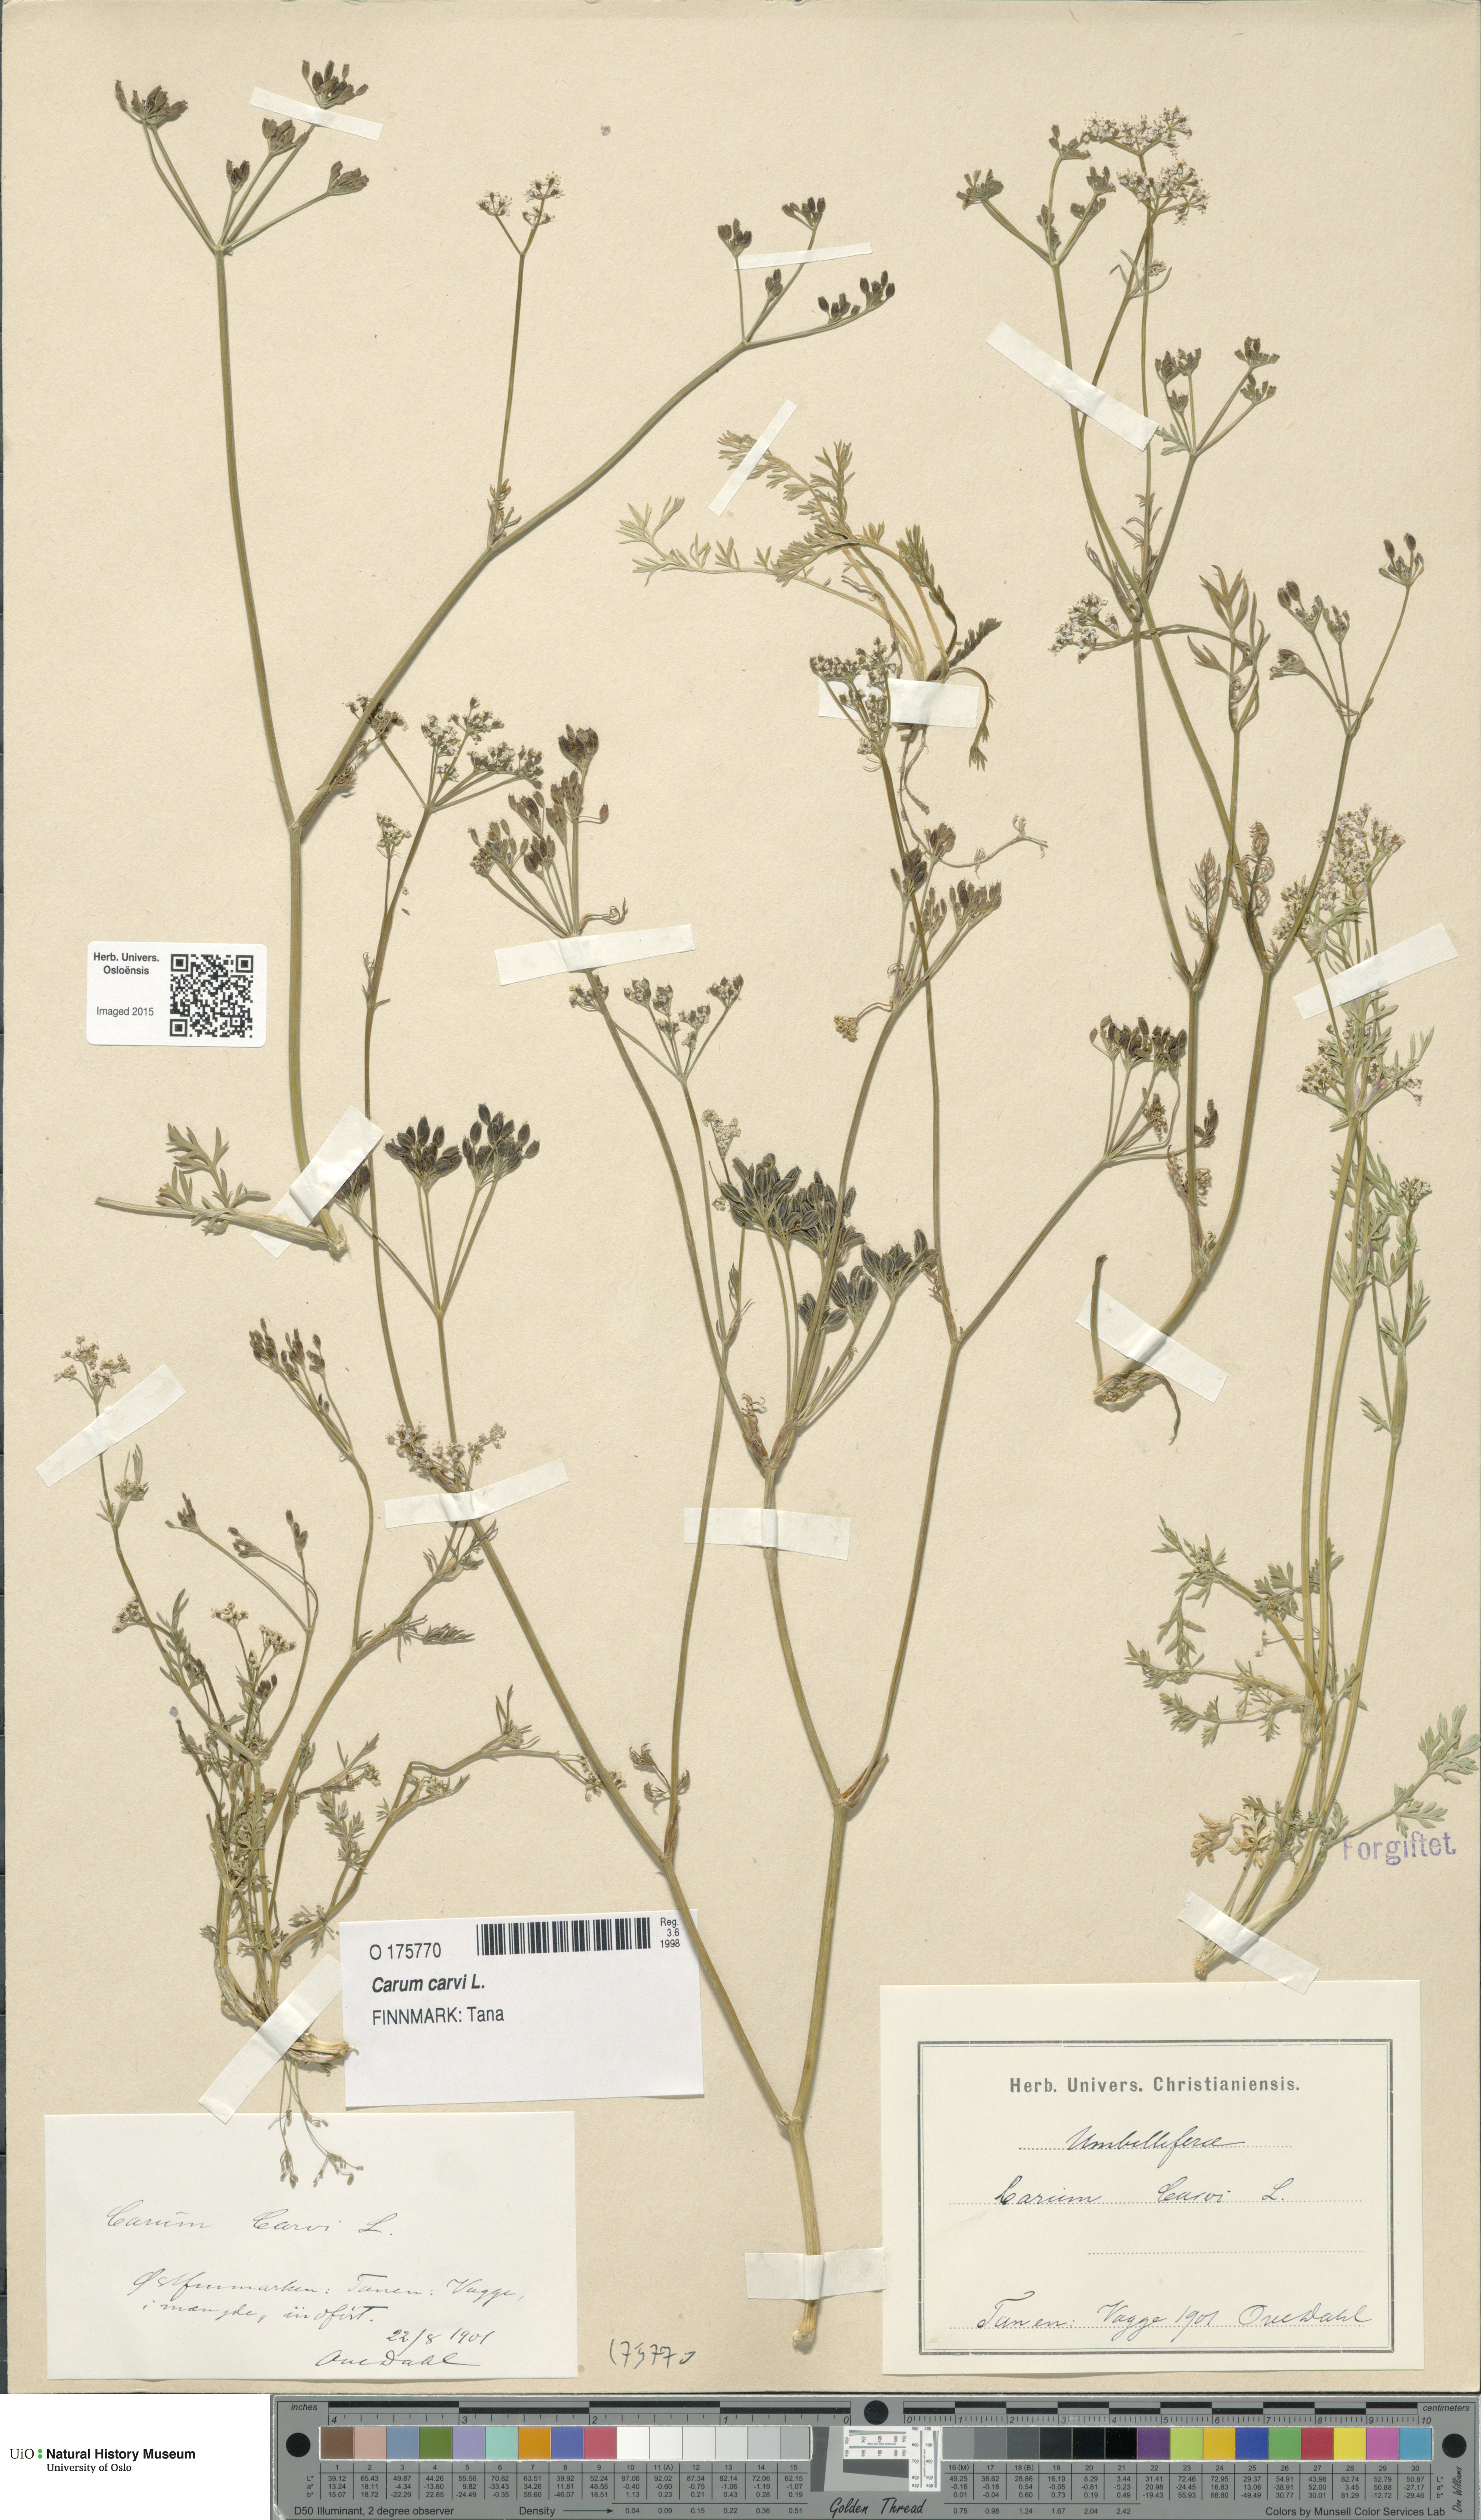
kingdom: Plantae
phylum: Tracheophyta
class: Magnoliopsida
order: Apiales
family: Apiaceae
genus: Carum
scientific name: Carum carvi
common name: Caraway
